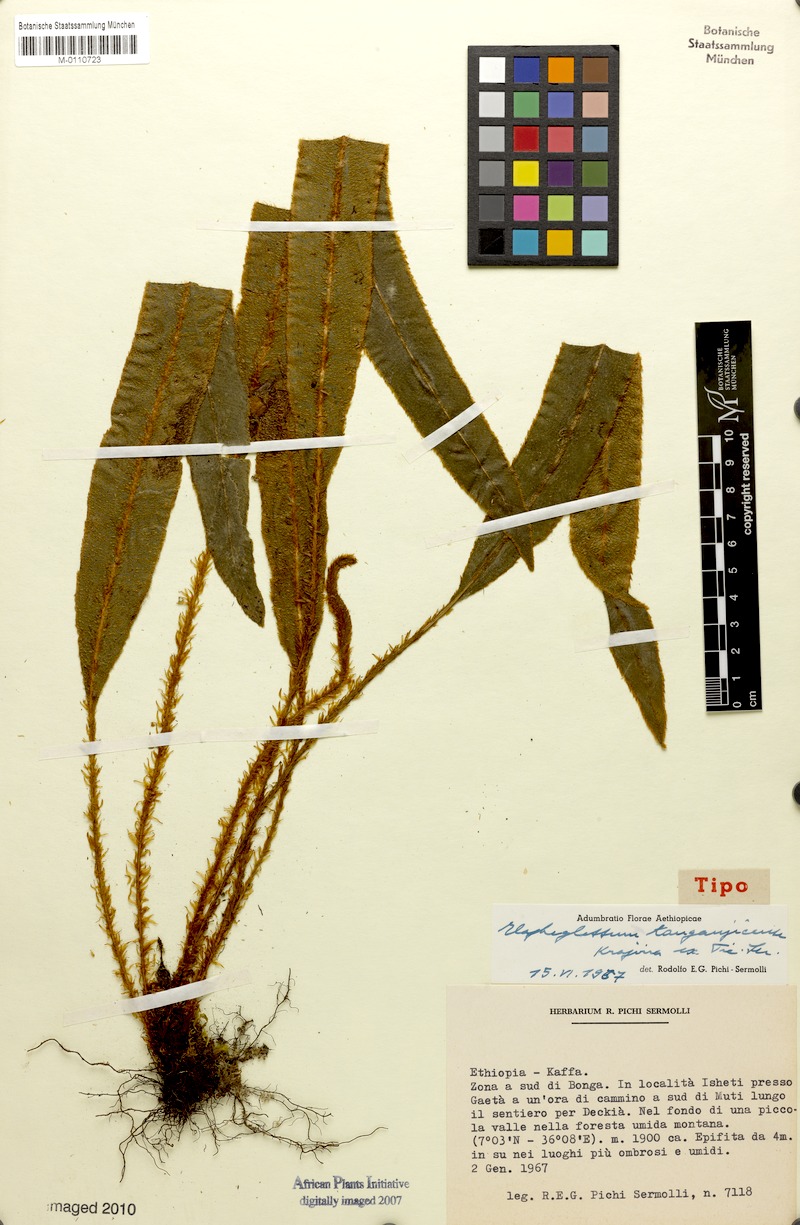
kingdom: Plantae
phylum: Tracheophyta
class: Polypodiopsida
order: Polypodiales
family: Dryopteridaceae
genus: Elaphoglossum
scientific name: Elaphoglossum deckenii
